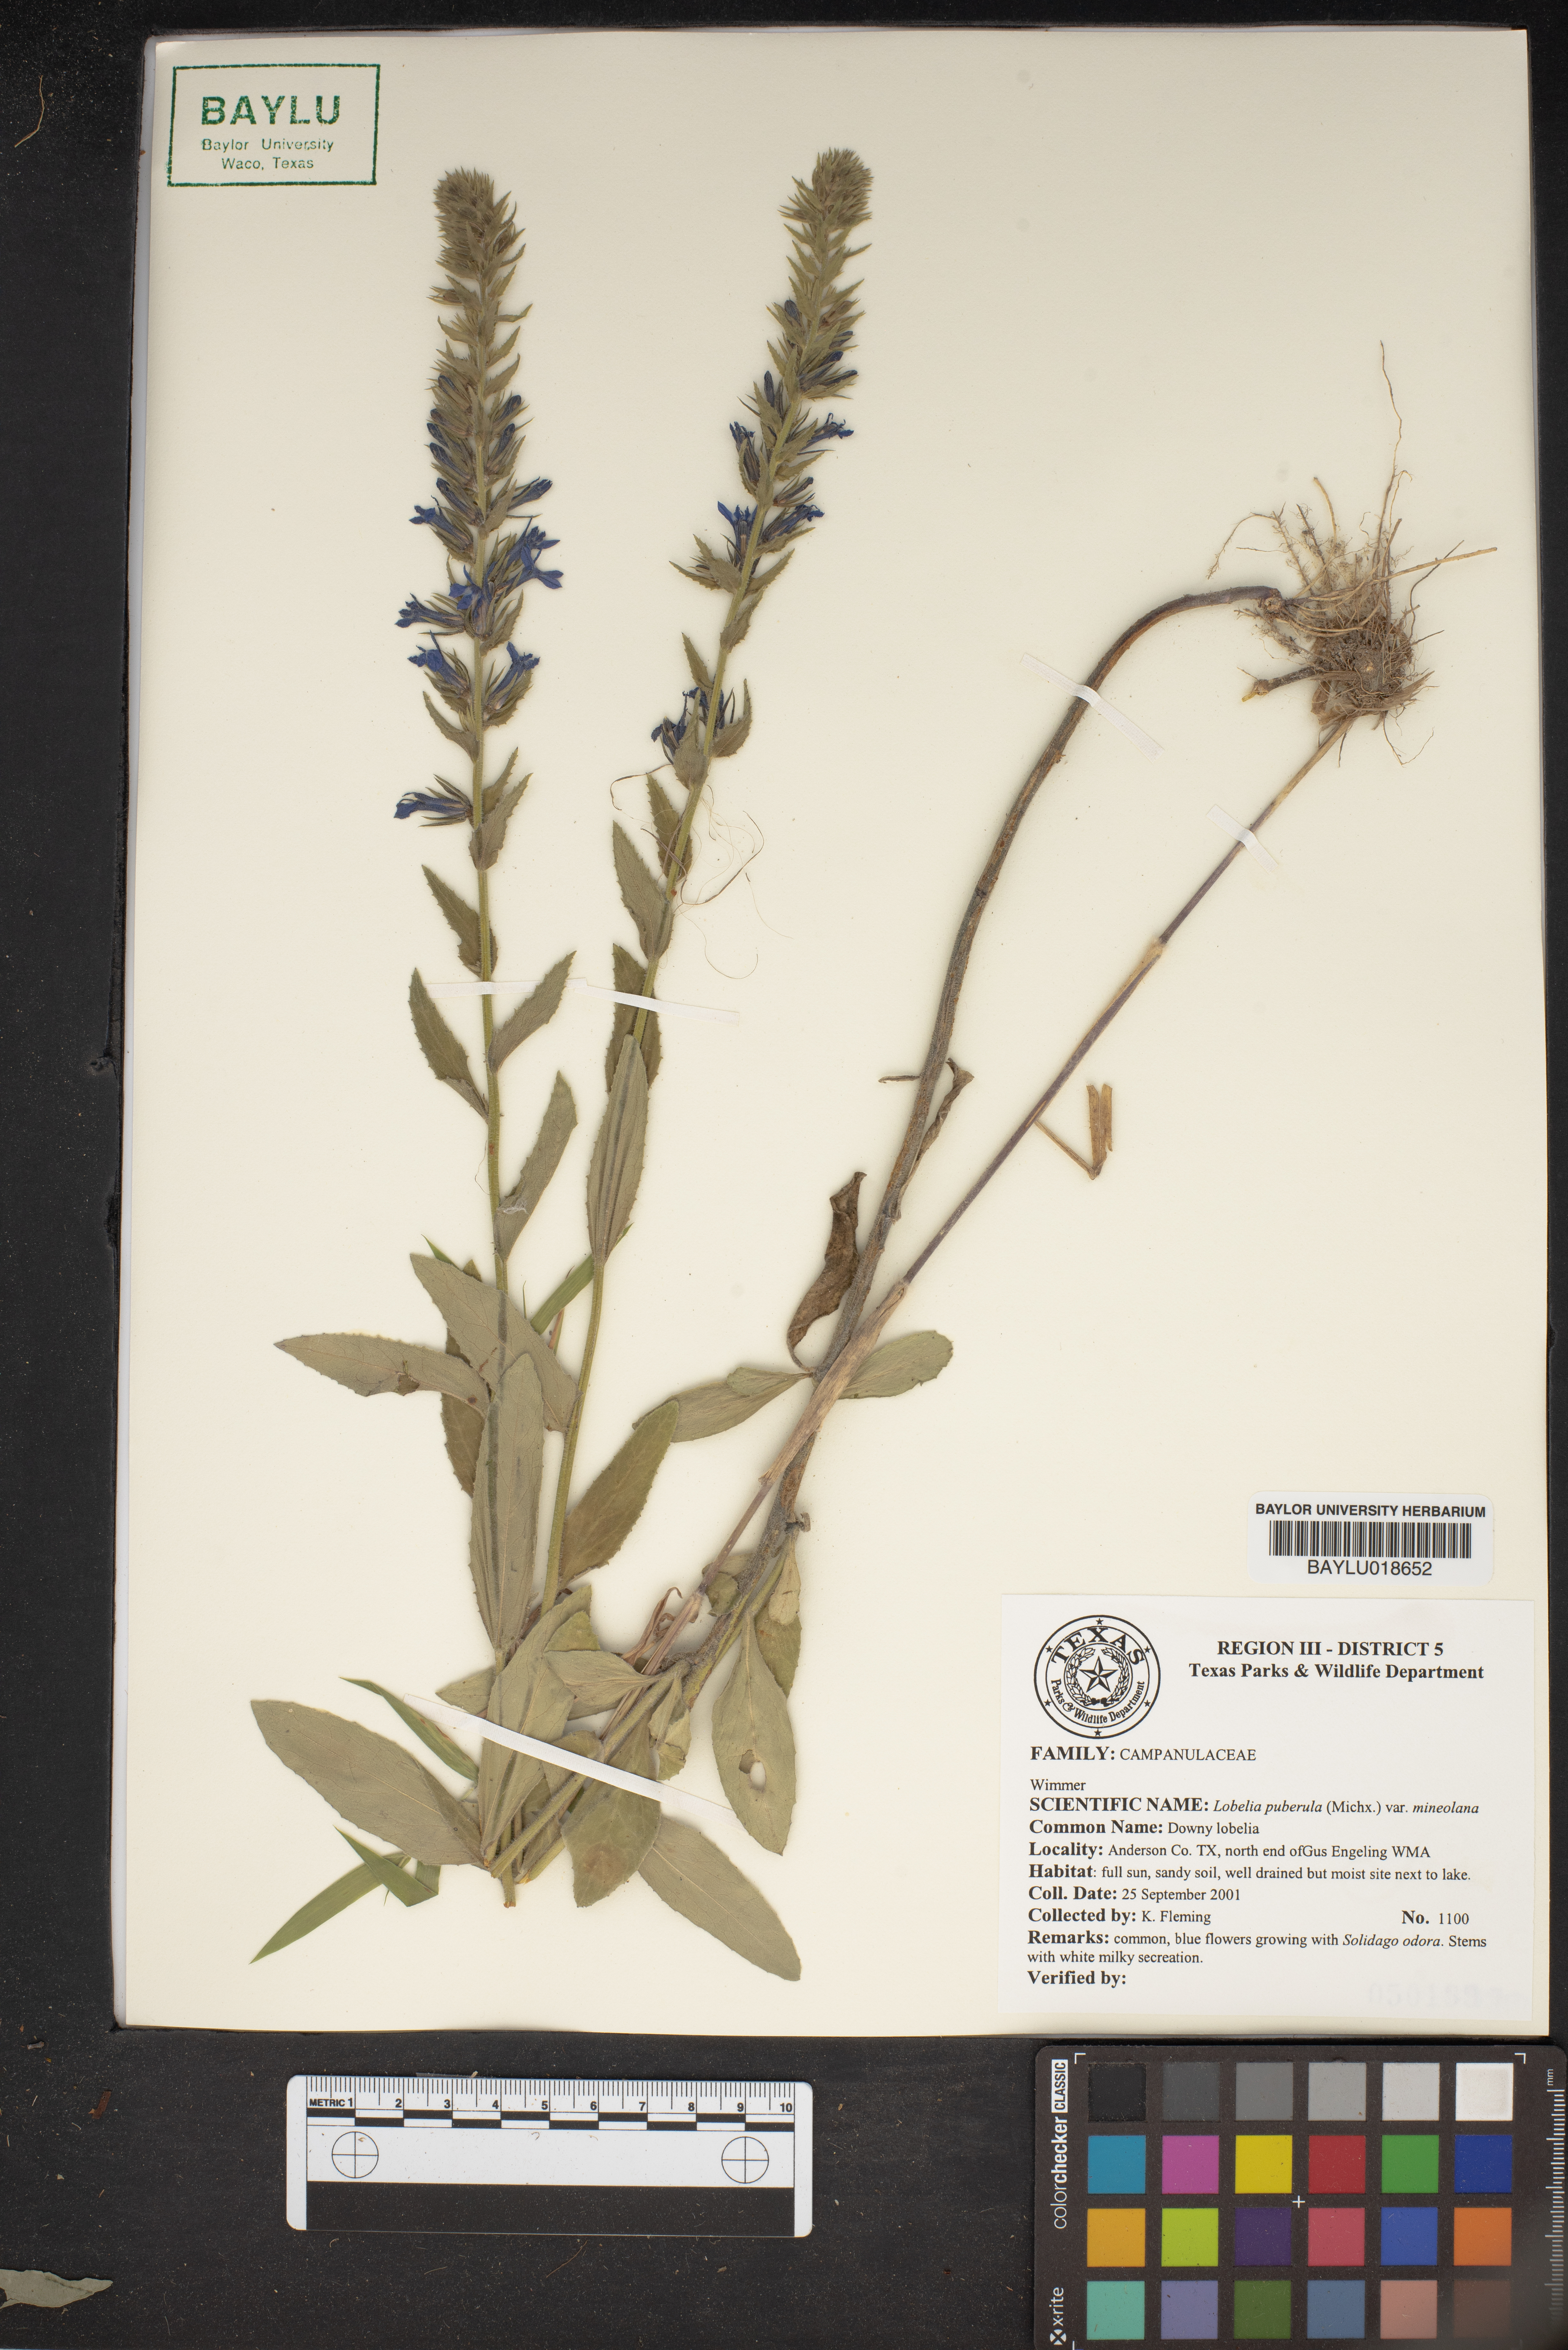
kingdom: Plantae
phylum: Tracheophyta
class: Magnoliopsida
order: Asterales
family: Campanulaceae
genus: Lobelia
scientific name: Lobelia puberula
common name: Purple dewdrop
